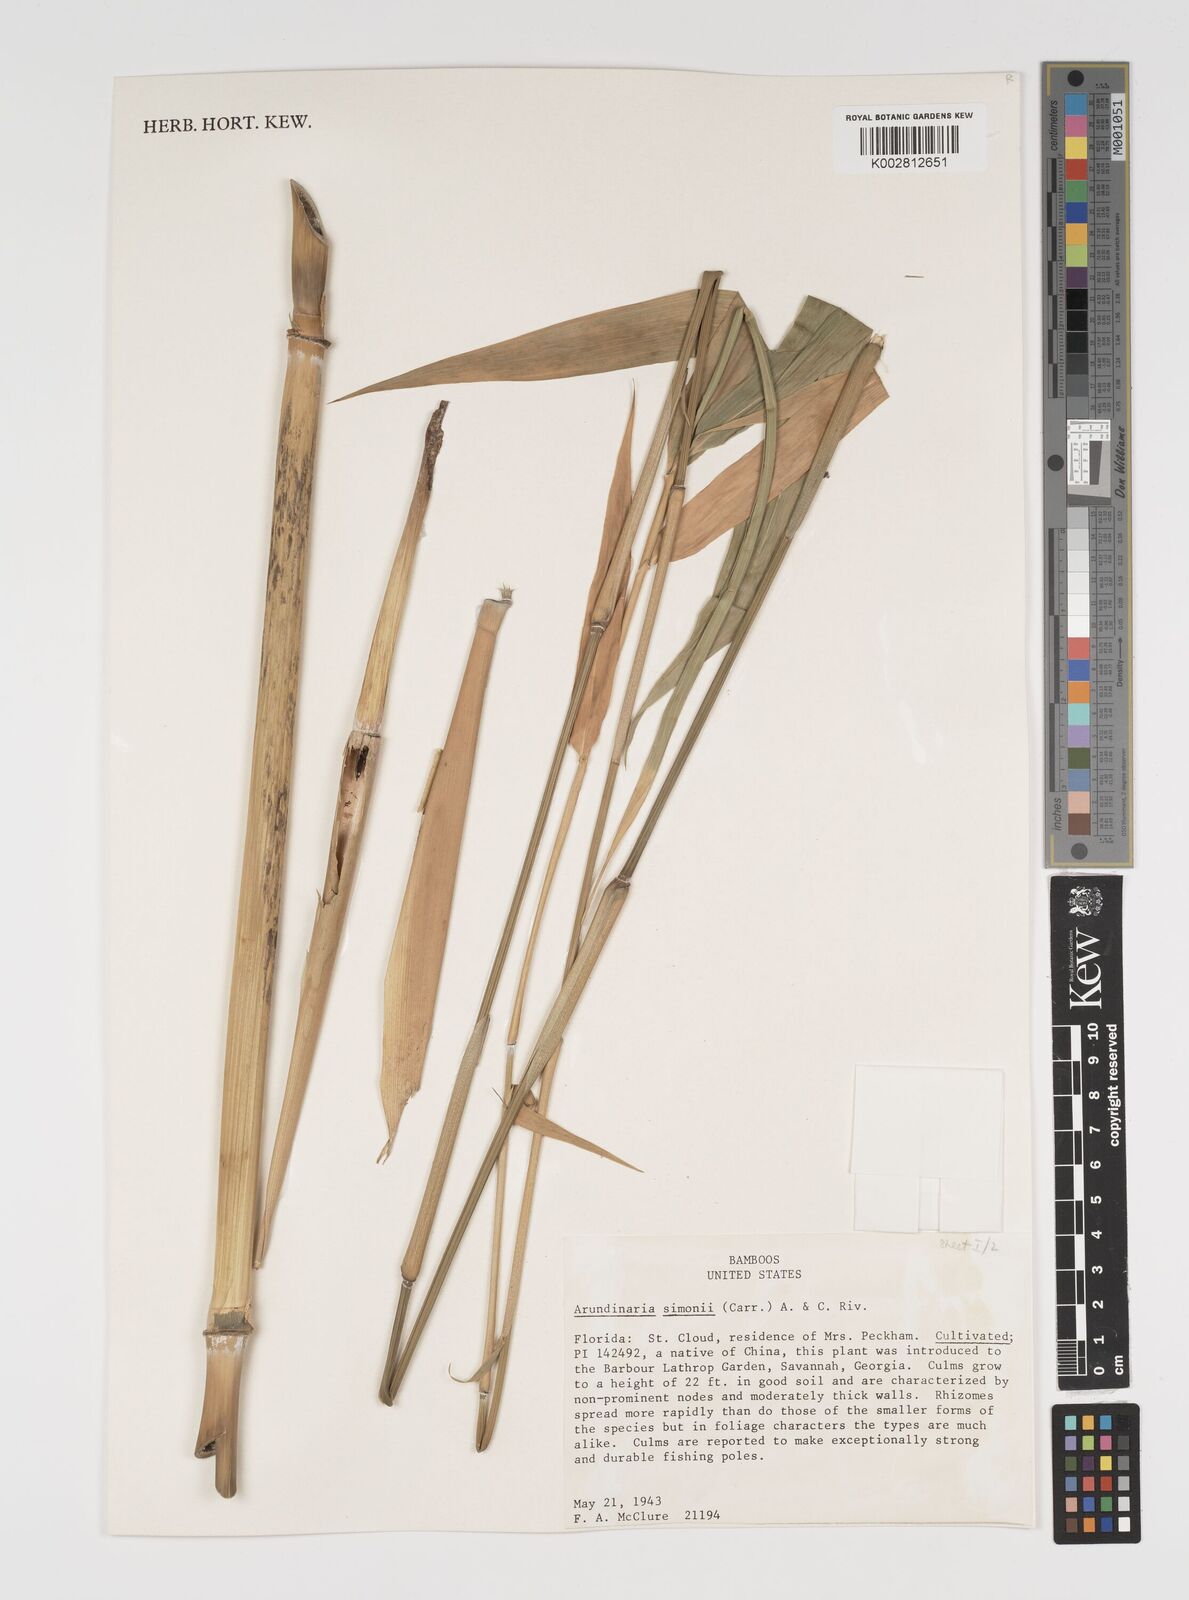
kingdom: Plantae
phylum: Tracheophyta
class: Liliopsida
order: Poales
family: Poaceae
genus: Pleioblastus
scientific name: Pleioblastus simonii
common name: Simon bamboo
